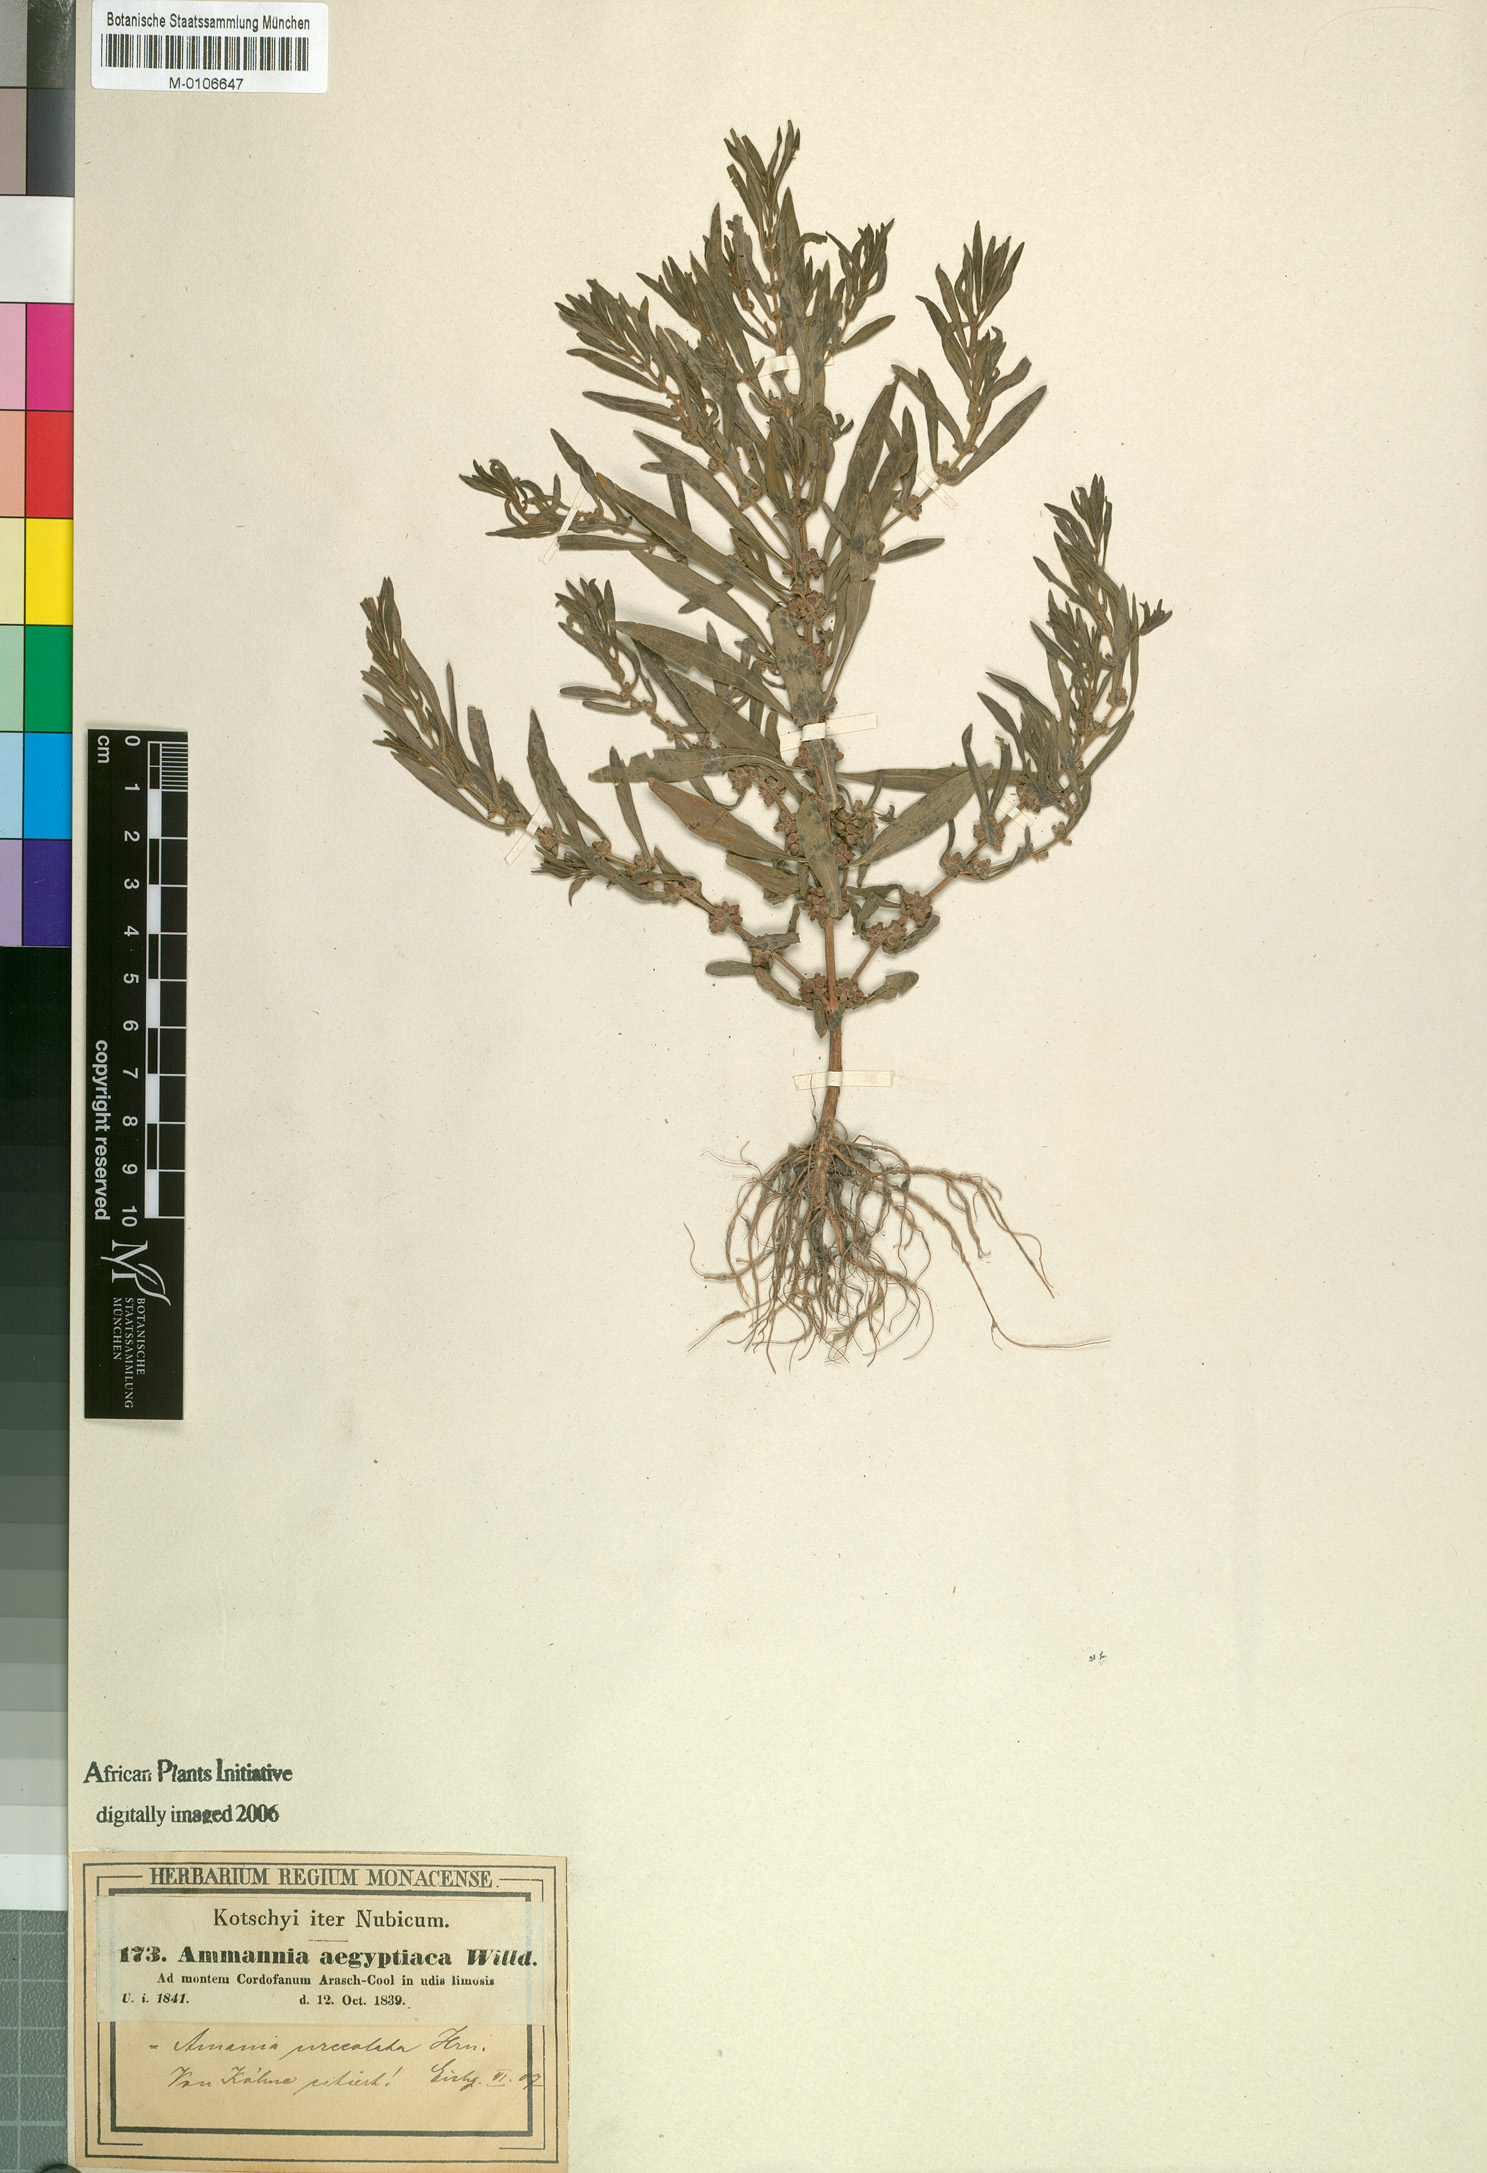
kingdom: Plantae
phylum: Tracheophyta
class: Magnoliopsida
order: Myrtales
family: Lythraceae
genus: Ammannia
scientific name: Ammannia urceolata
